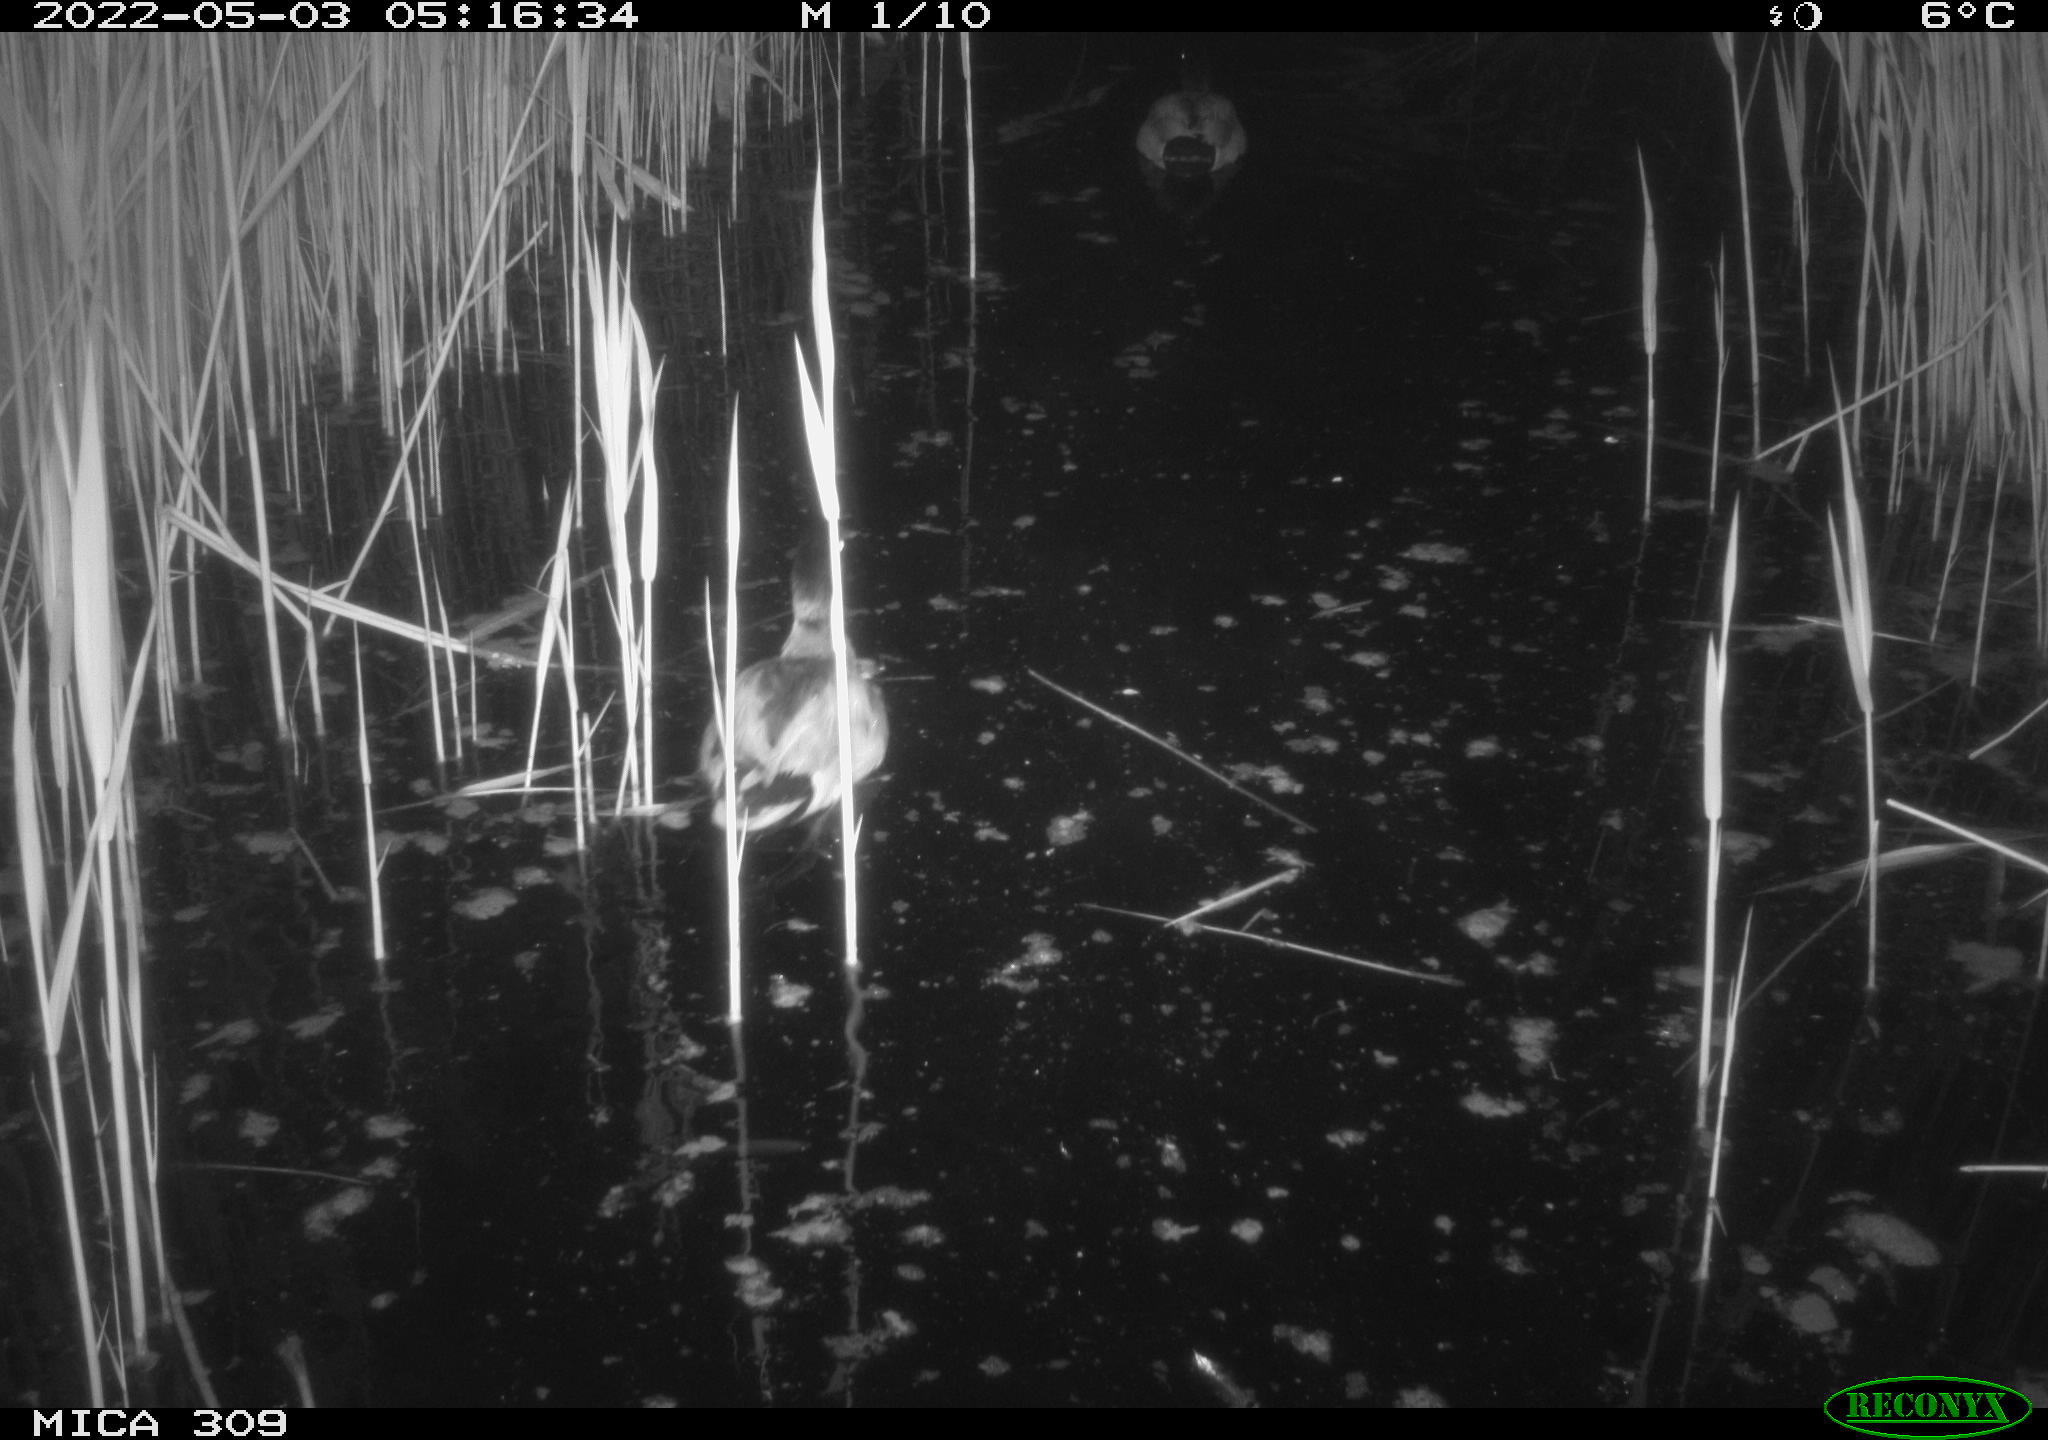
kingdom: Animalia
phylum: Chordata
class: Aves
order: Anseriformes
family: Anatidae
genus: Anas
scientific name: Anas platyrhynchos
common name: Mallard
